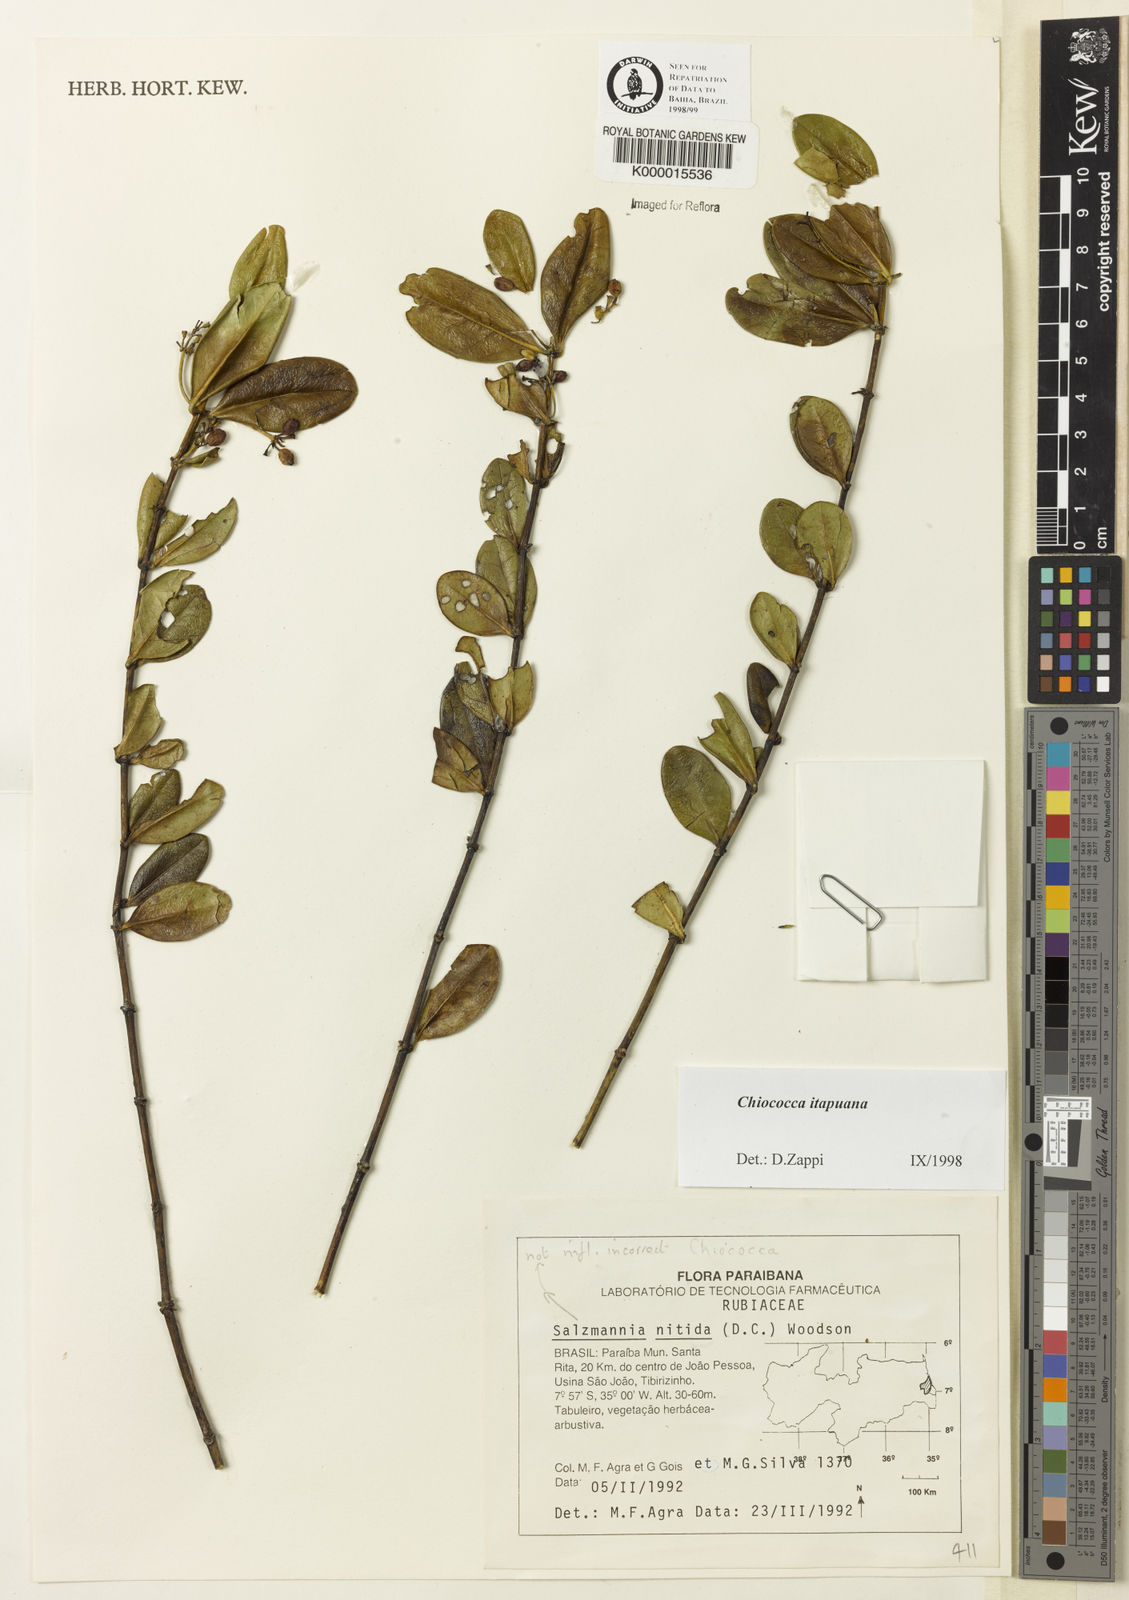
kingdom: Plantae
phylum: Tracheophyta
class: Magnoliopsida
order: Gentianales
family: Rubiaceae
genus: Chiococca
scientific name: Chiococca
